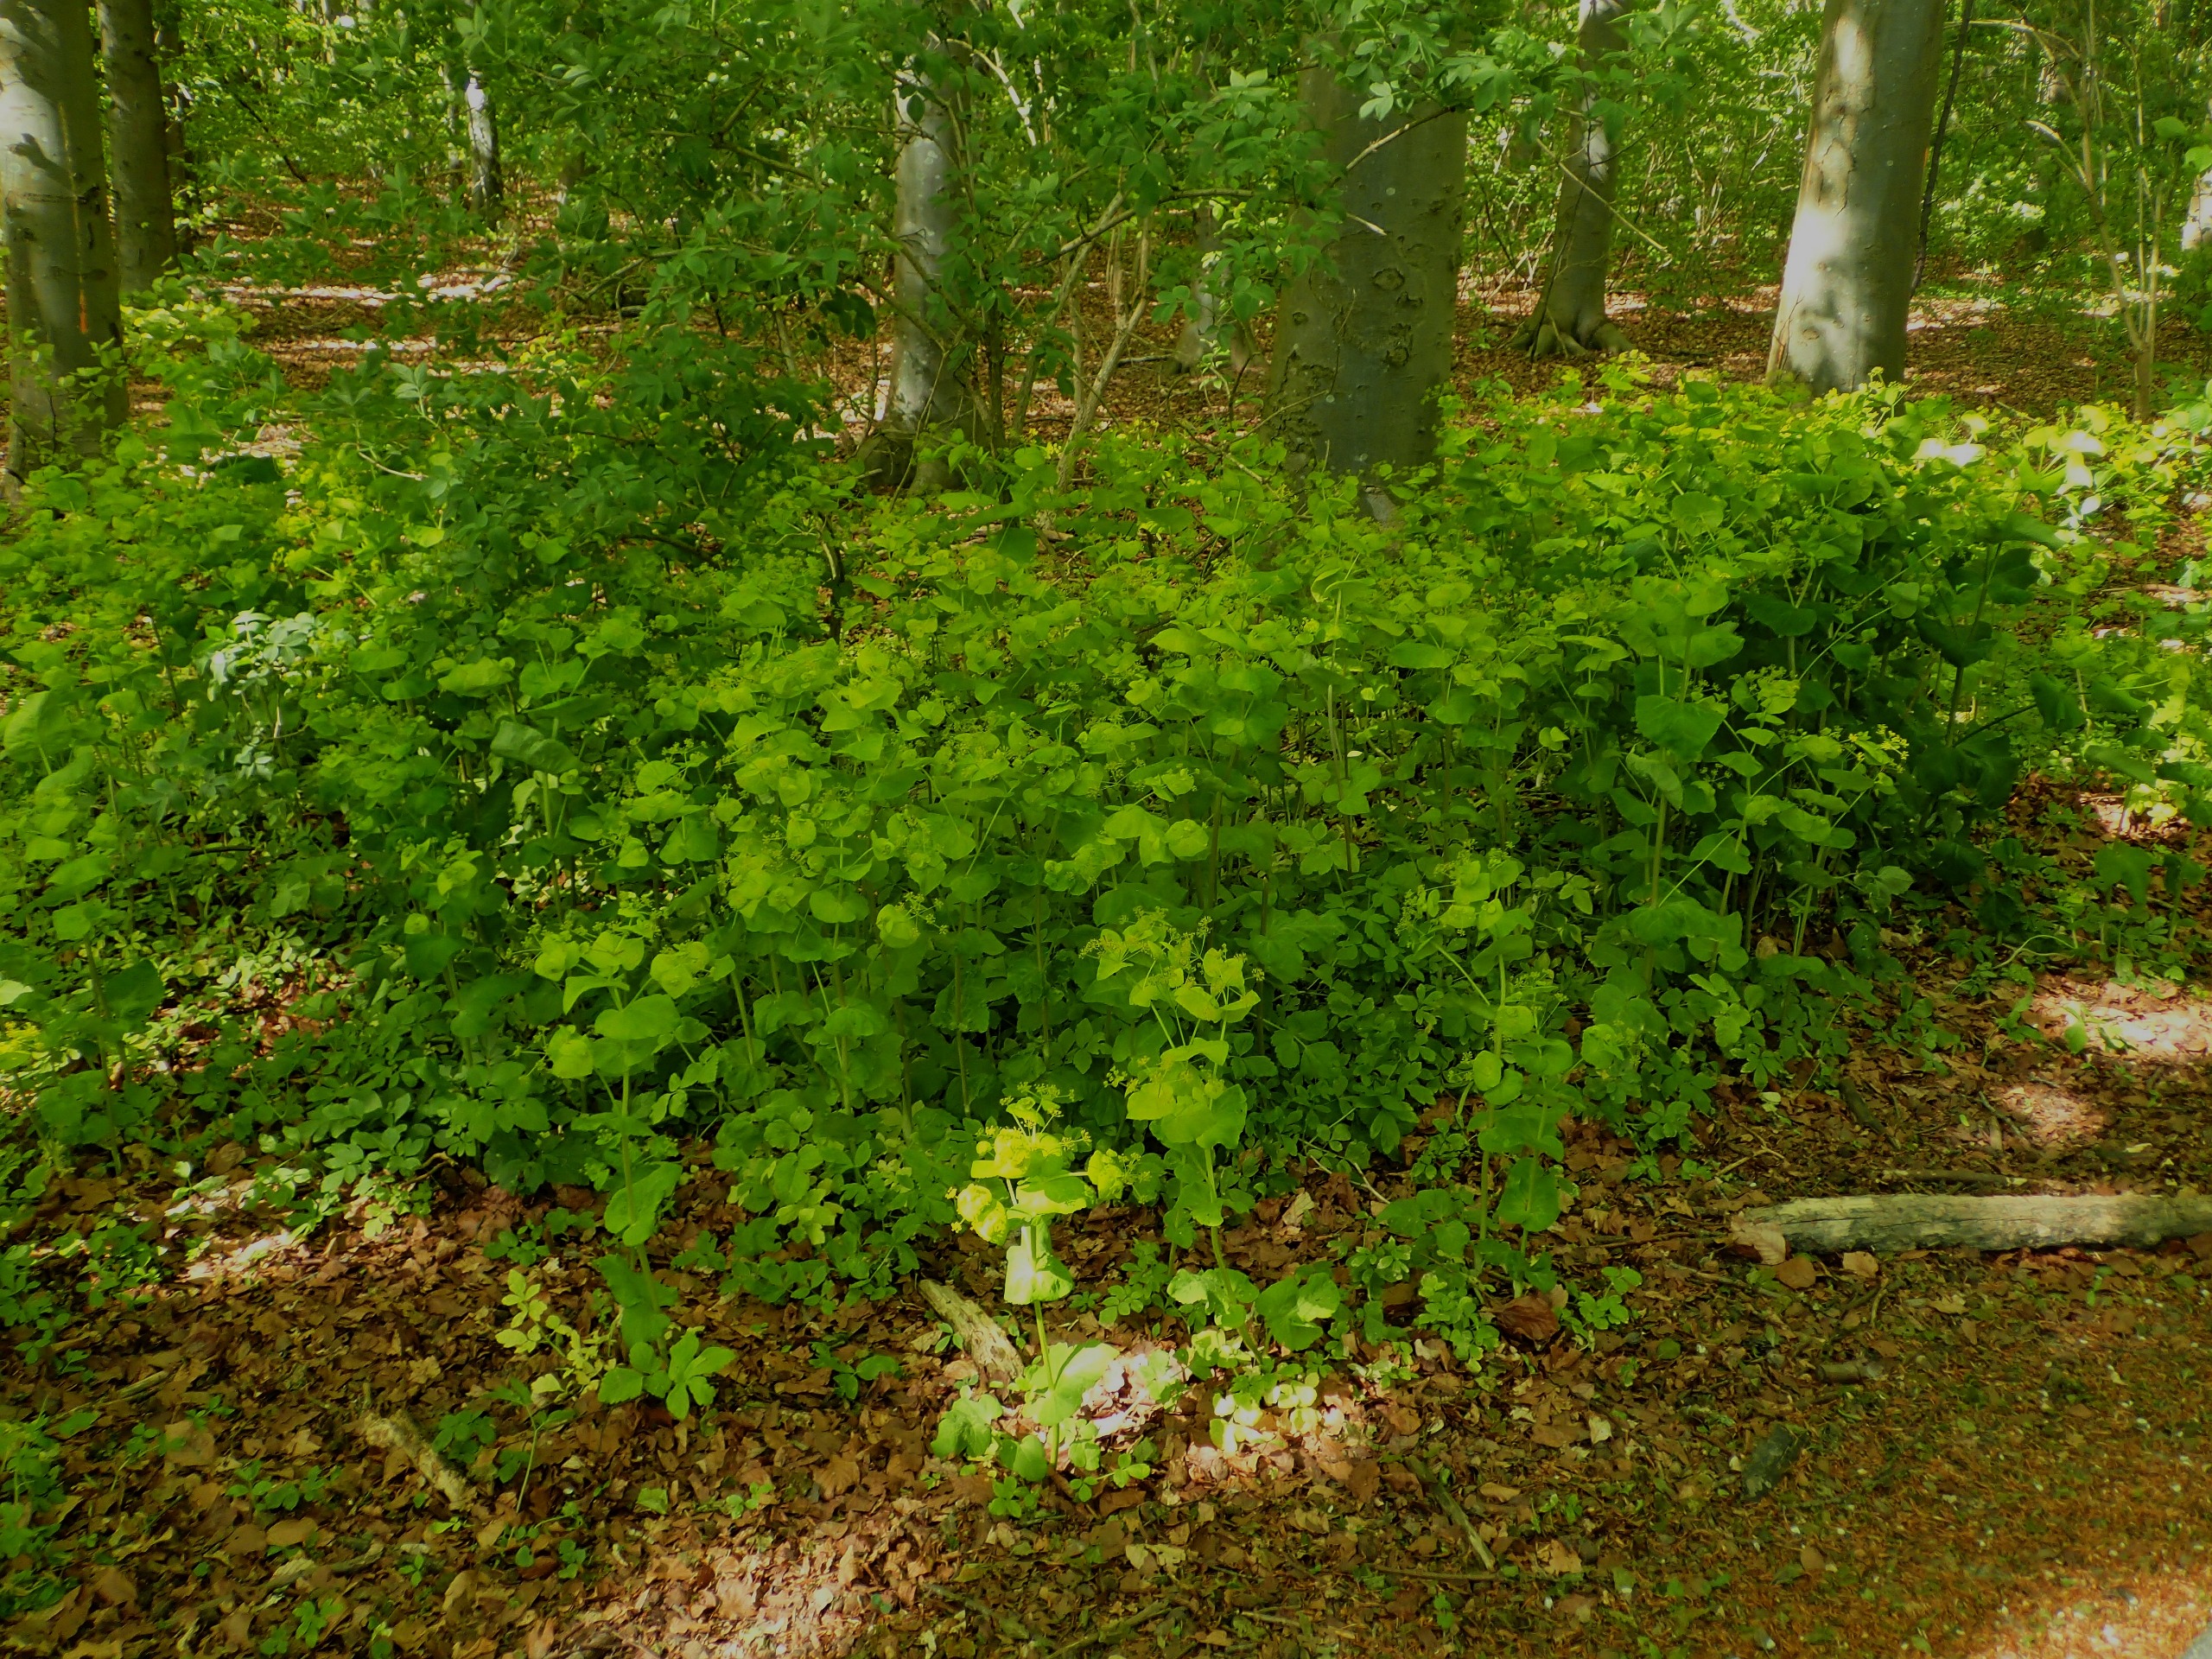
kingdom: Plantae
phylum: Tracheophyta
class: Magnoliopsida
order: Apiales
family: Apiaceae
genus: Smyrnium
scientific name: Smyrnium perfoliatum
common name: Lundgylden
